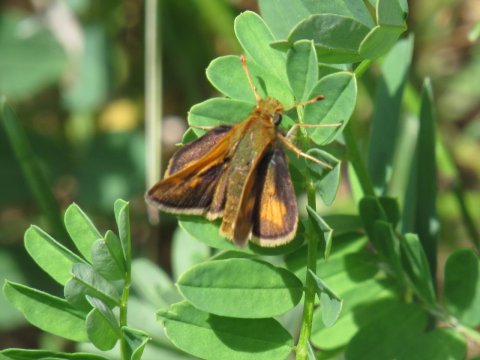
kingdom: Animalia
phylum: Arthropoda
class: Insecta
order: Lepidoptera
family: Hesperiidae
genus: Polites
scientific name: Polites coras
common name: Peck's Skipper
